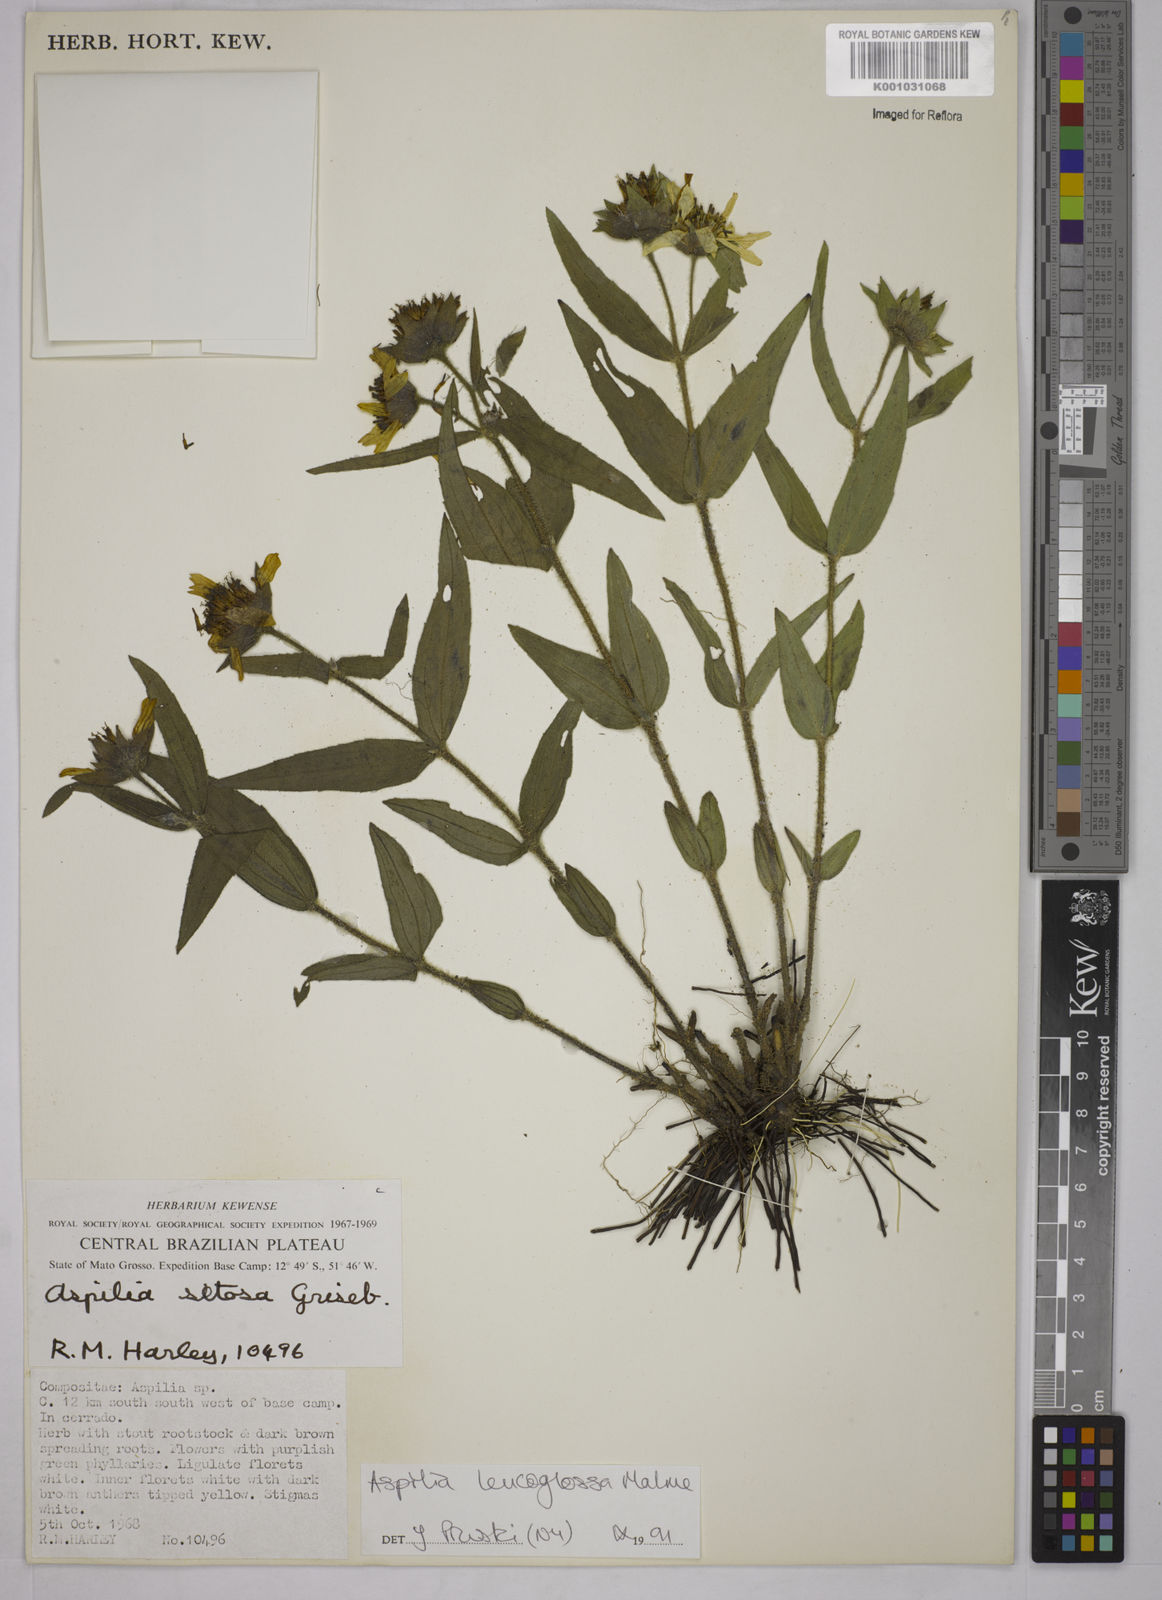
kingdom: Plantae
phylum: Tracheophyta
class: Magnoliopsida
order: Asterales
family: Asteraceae
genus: Wedelia
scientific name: Wedelia leucoglossa
